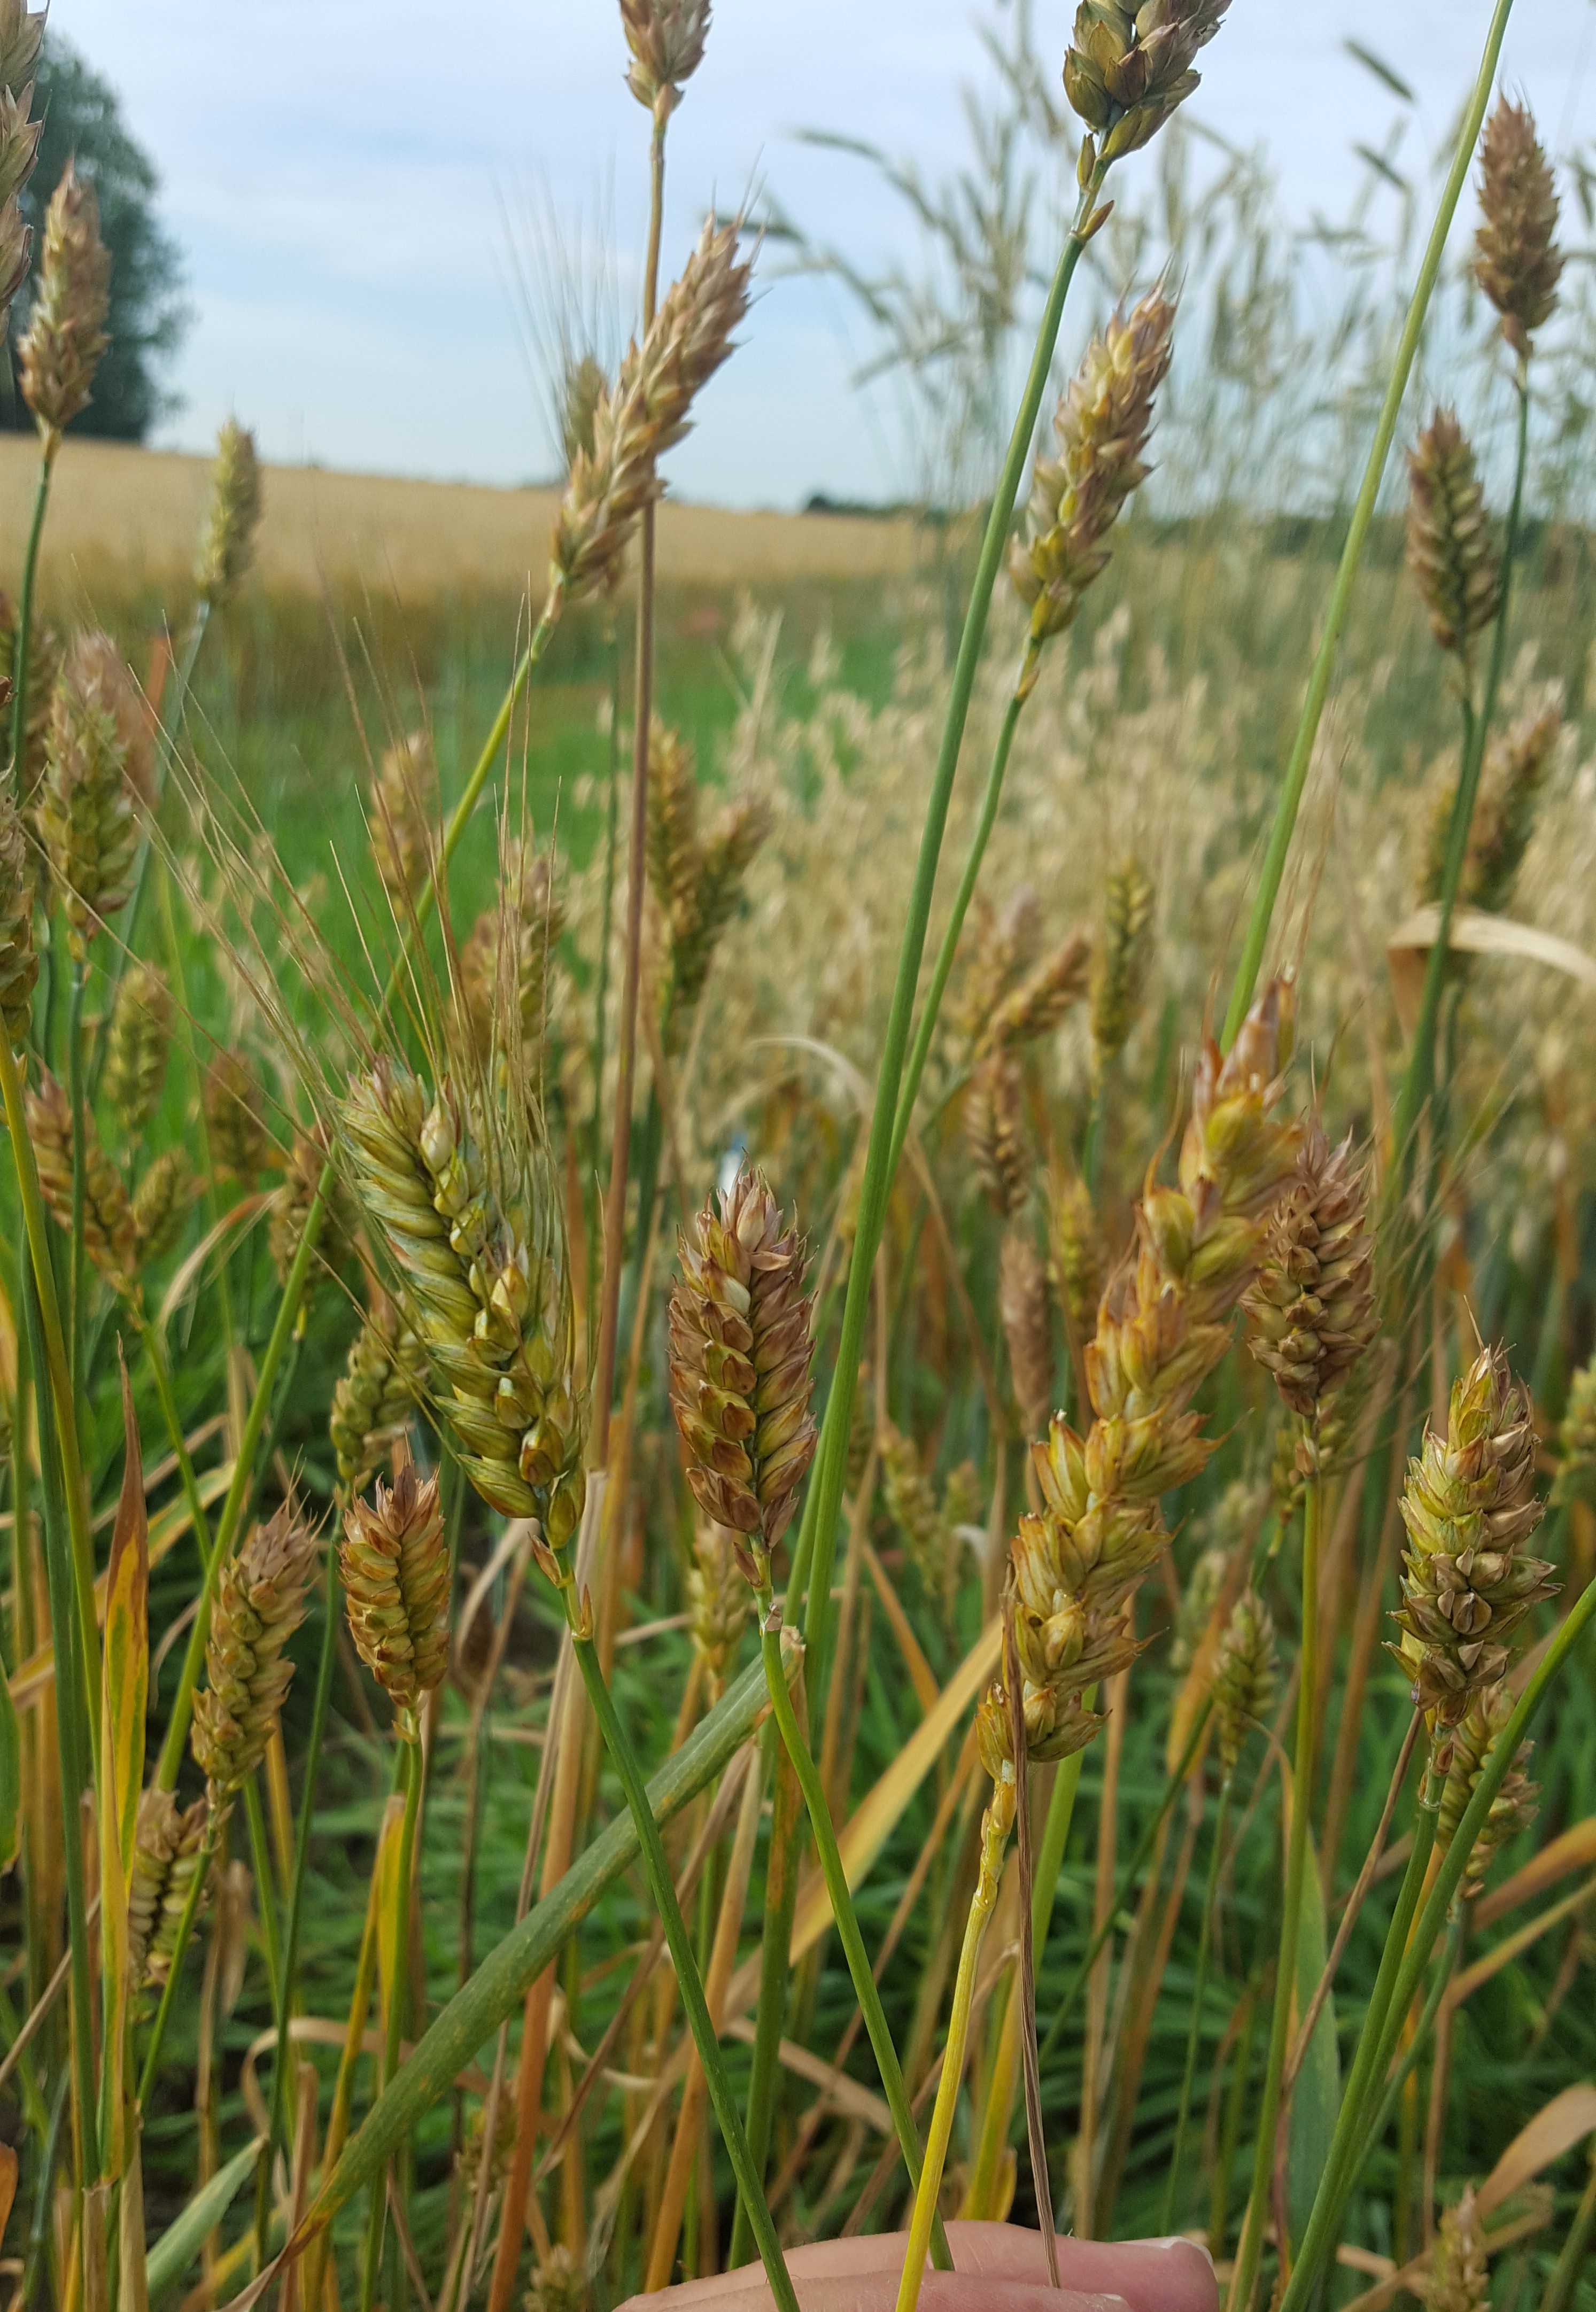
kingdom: Plantae
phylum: Tracheophyta
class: Liliopsida
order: Poales
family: Poaceae
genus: Triticum
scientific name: Triticum aestivum
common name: Common wheat
